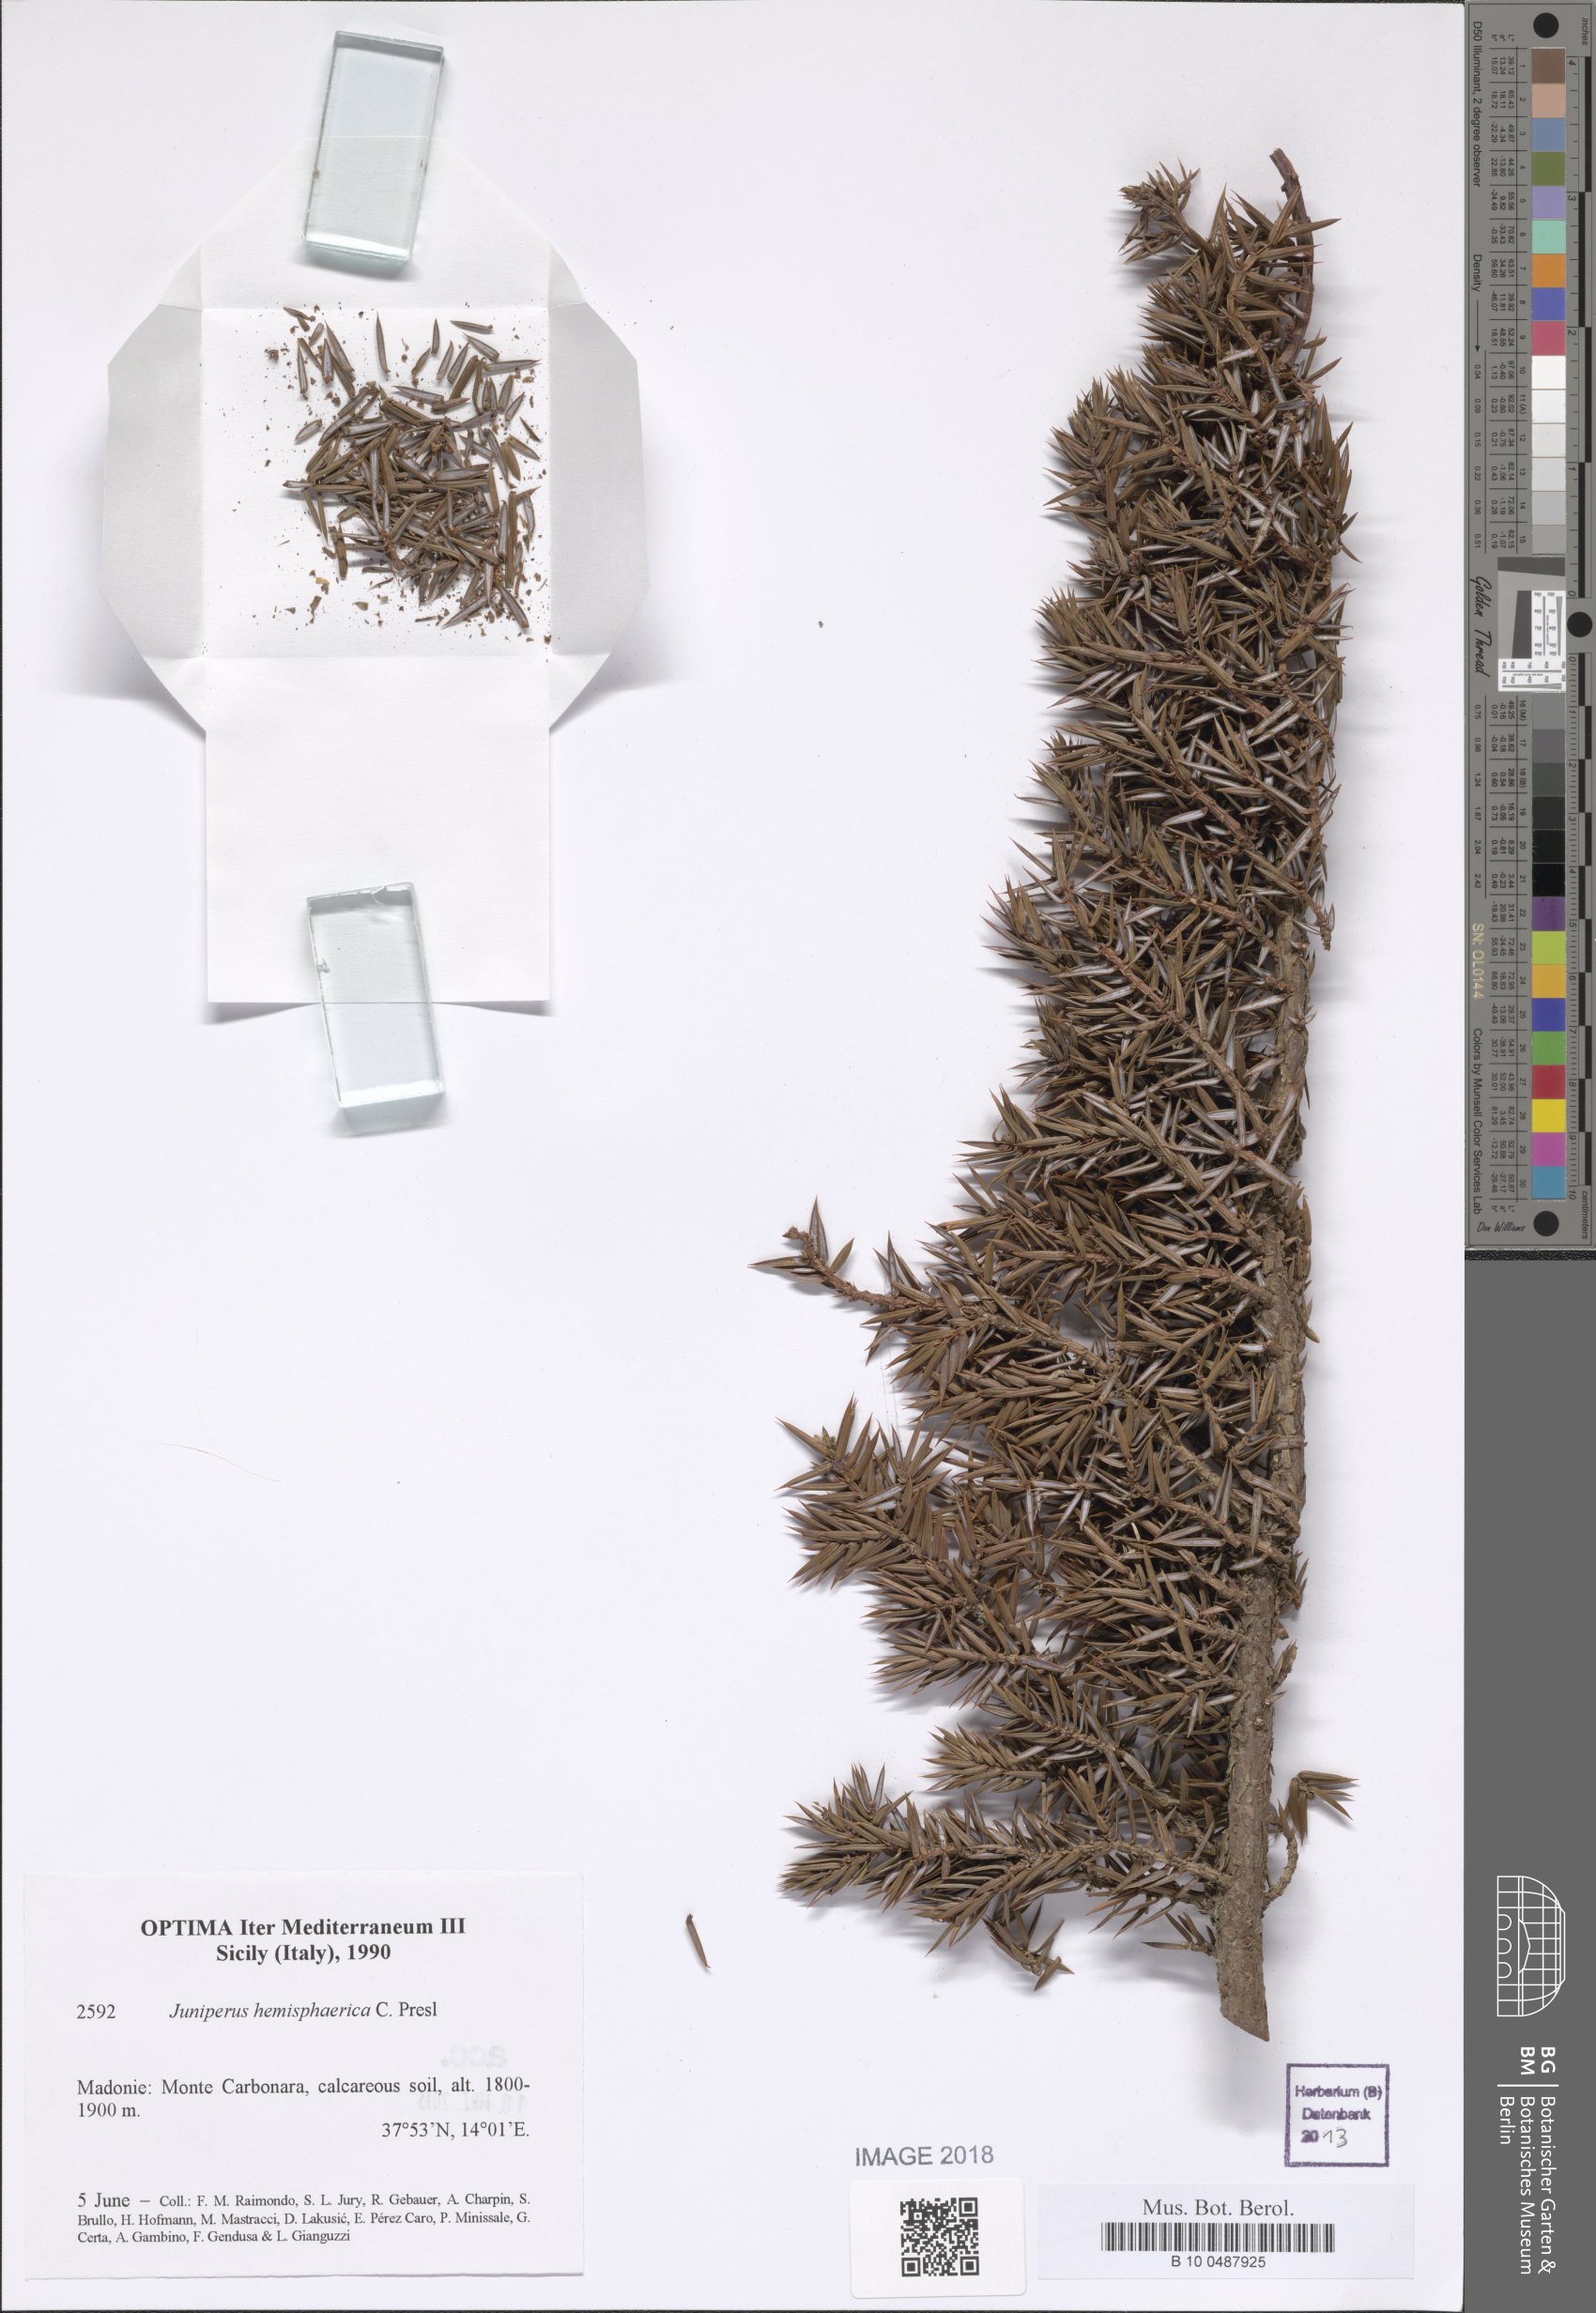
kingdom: Plantae
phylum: Tracheophyta
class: Pinopsida
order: Pinales
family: Cupressaceae
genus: Juniperus
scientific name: Juniperus communis
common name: Common juniper
